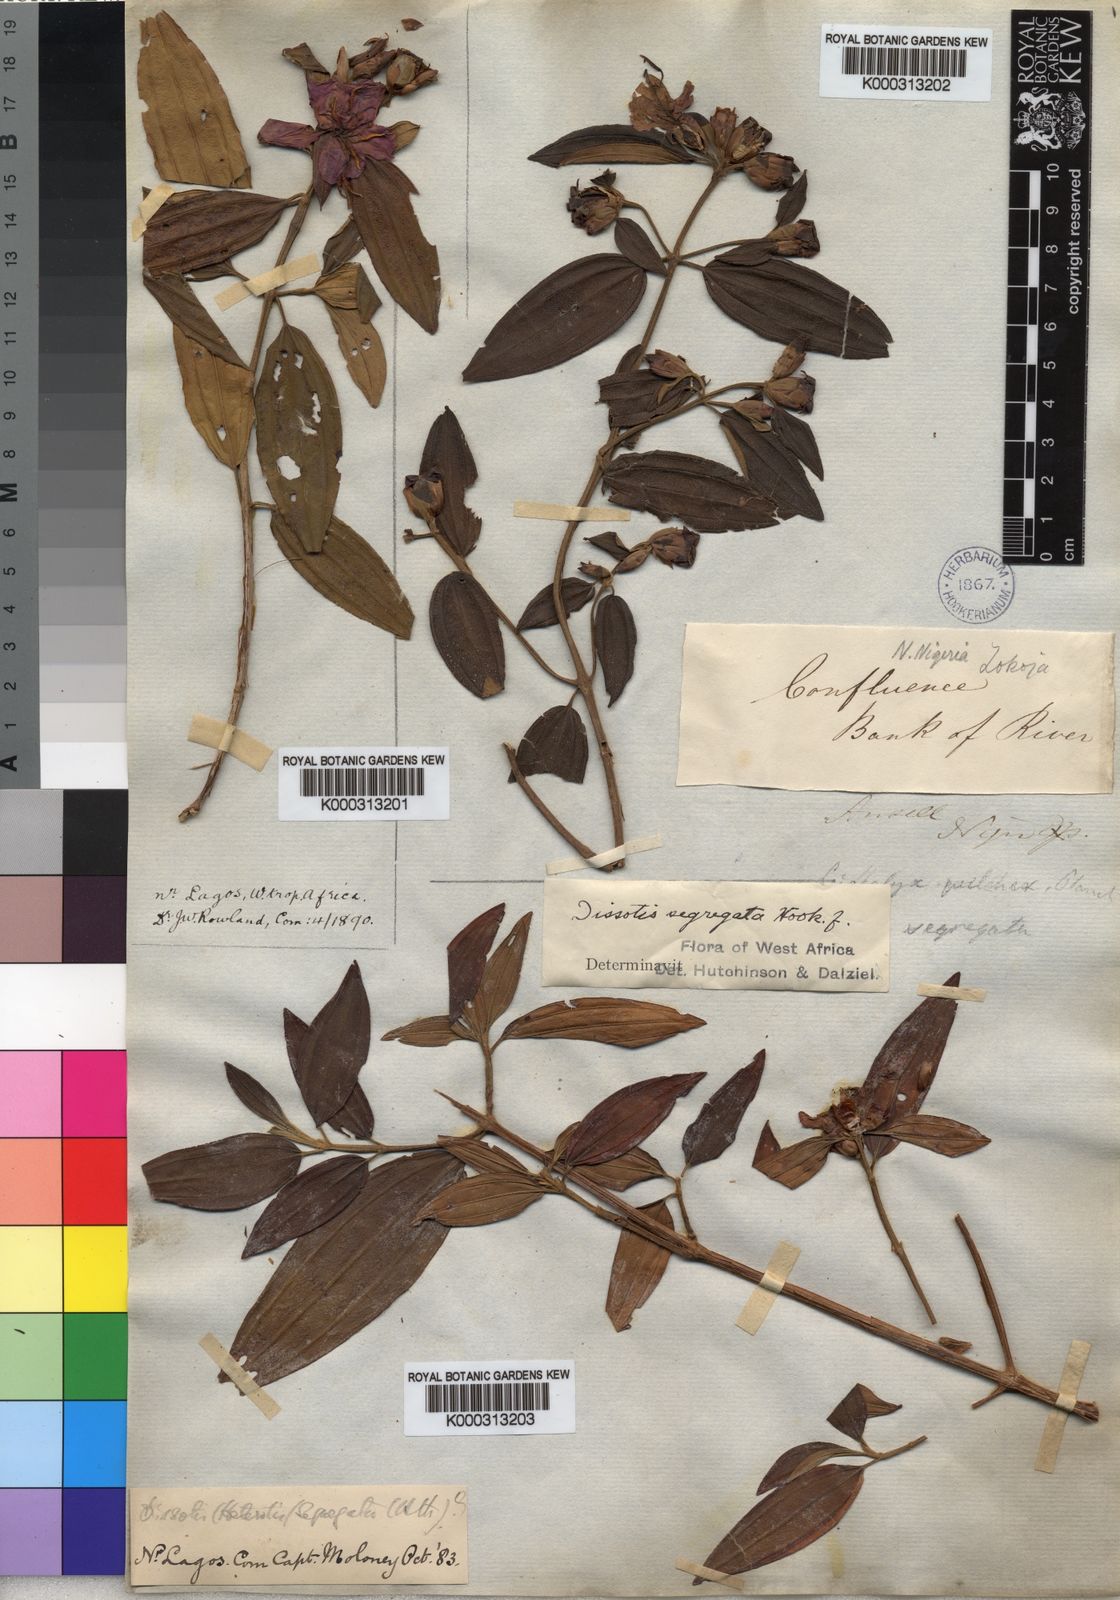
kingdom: Plantae
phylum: Tracheophyta
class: Magnoliopsida
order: Myrtales
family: Melastomataceae
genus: Melastomastrum
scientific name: Melastomastrum segregatum
